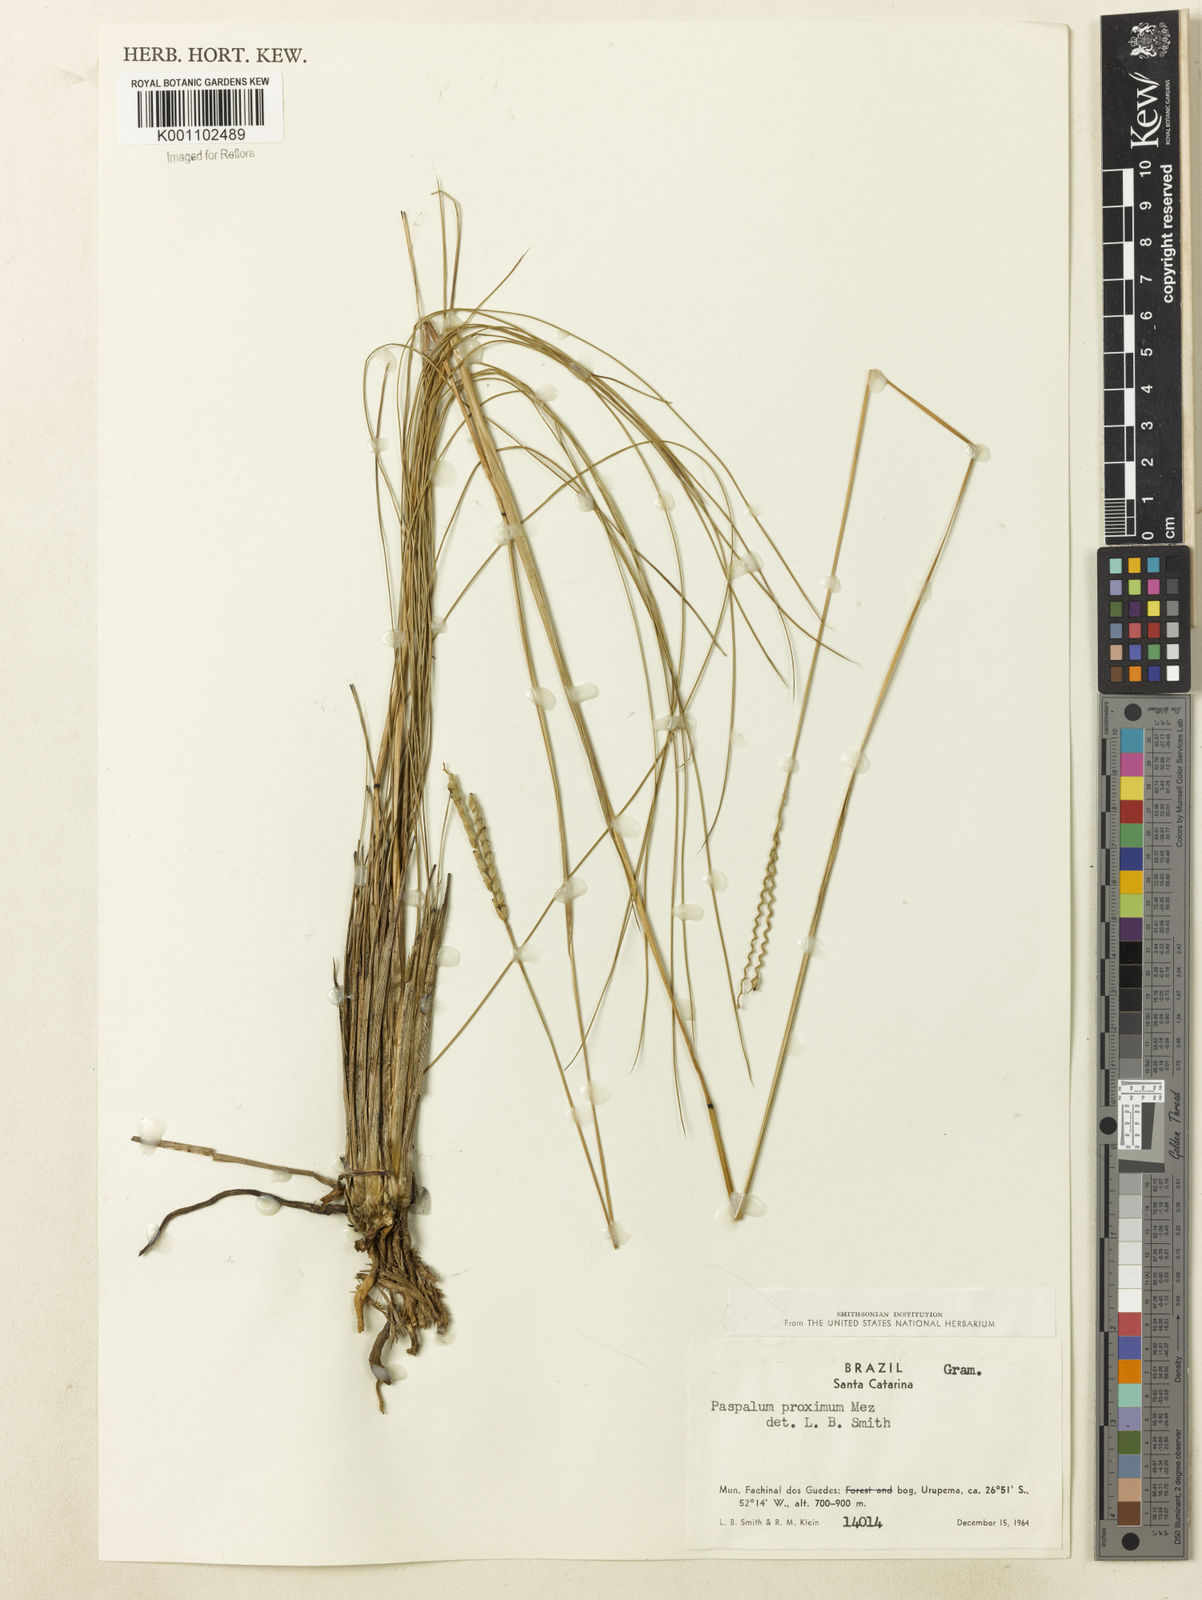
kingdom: Plantae
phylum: Tracheophyta
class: Liliopsida
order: Poales
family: Poaceae
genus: Paspalum
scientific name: Paspalum ellipticum
